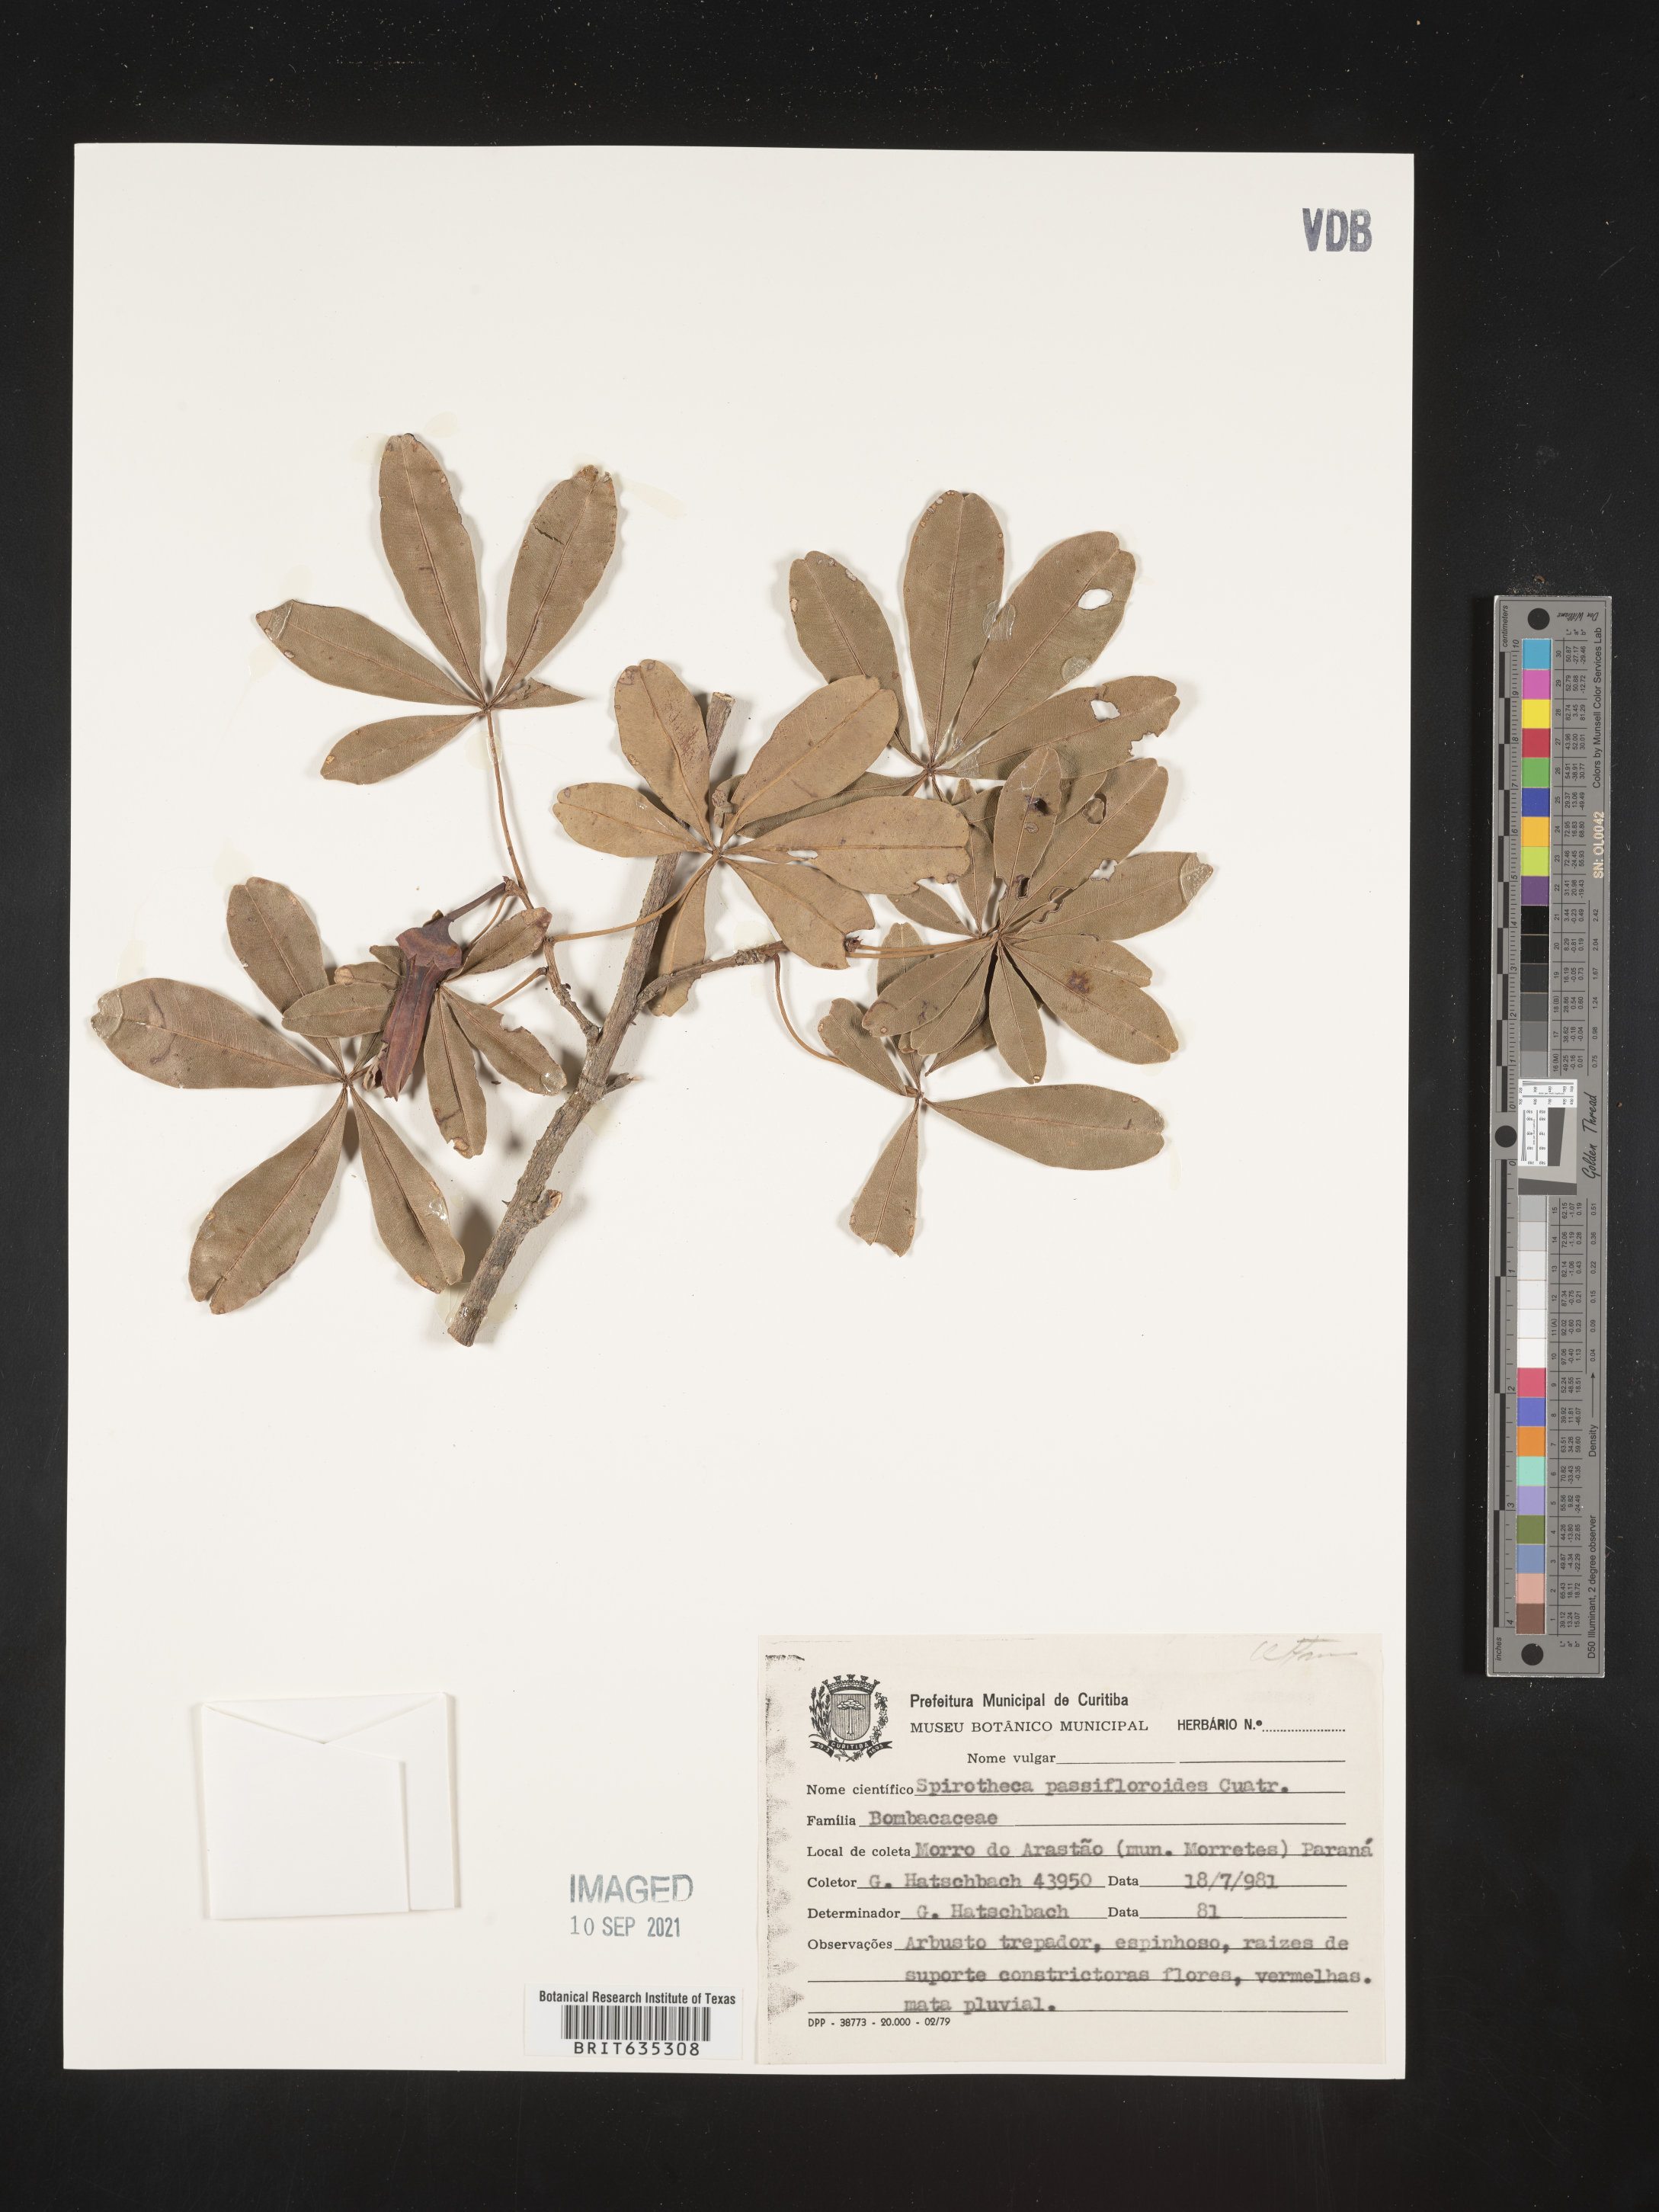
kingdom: Plantae
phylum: Tracheophyta
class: Magnoliopsida
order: Malvales
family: Malvaceae
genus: Spirotheca
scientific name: Spirotheca
